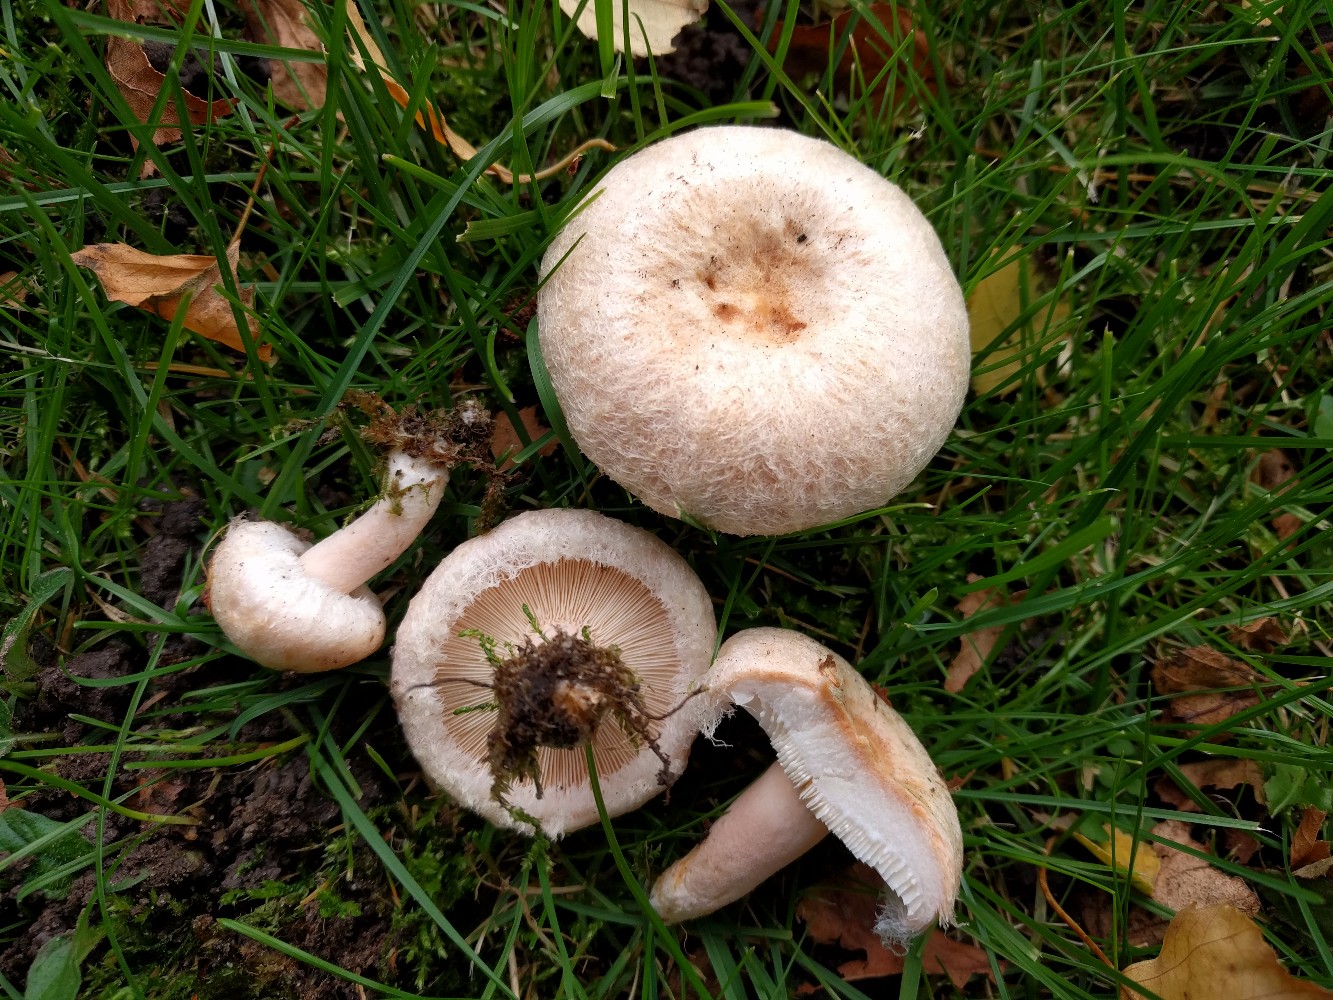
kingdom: Fungi
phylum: Basidiomycota
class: Agaricomycetes
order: Russulales
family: Russulaceae
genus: Lactarius
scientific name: Lactarius torminosus
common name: skægget mælkehat
